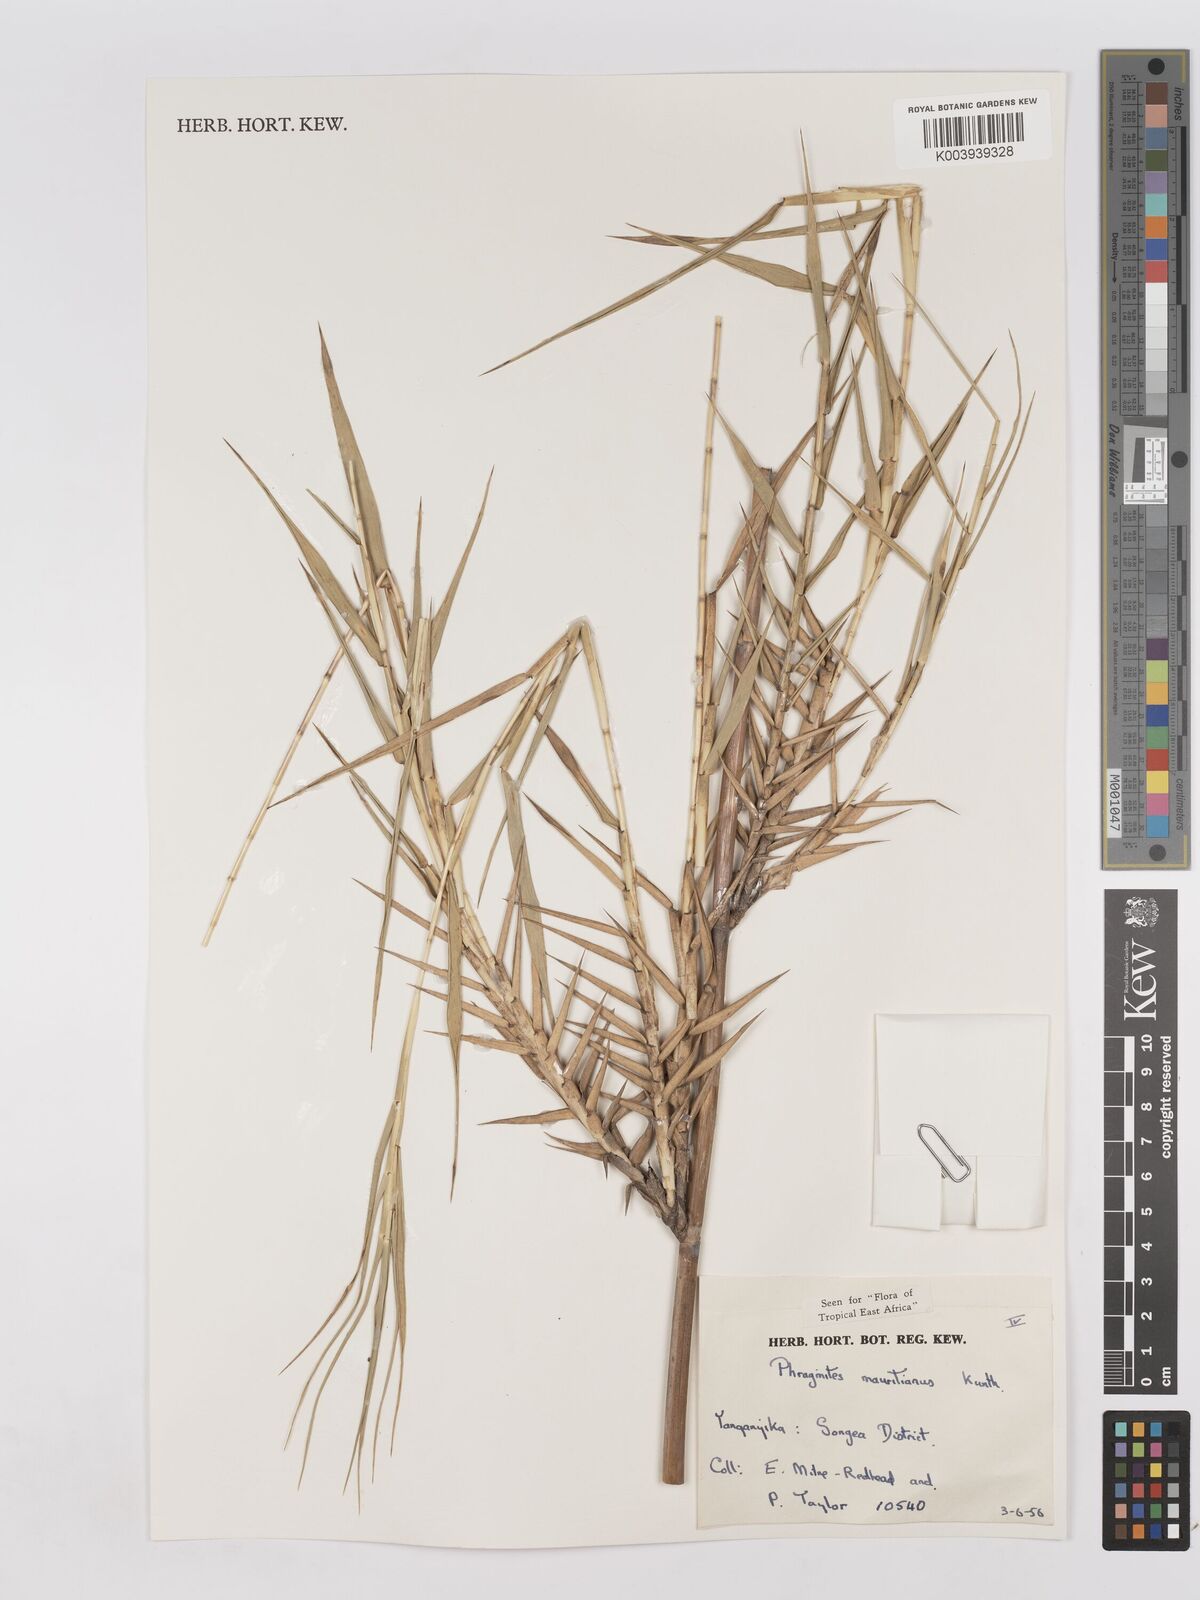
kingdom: Plantae
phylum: Tracheophyta
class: Liliopsida
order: Poales
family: Poaceae
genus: Phragmites
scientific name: Phragmites mauritianus
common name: Reed grass
